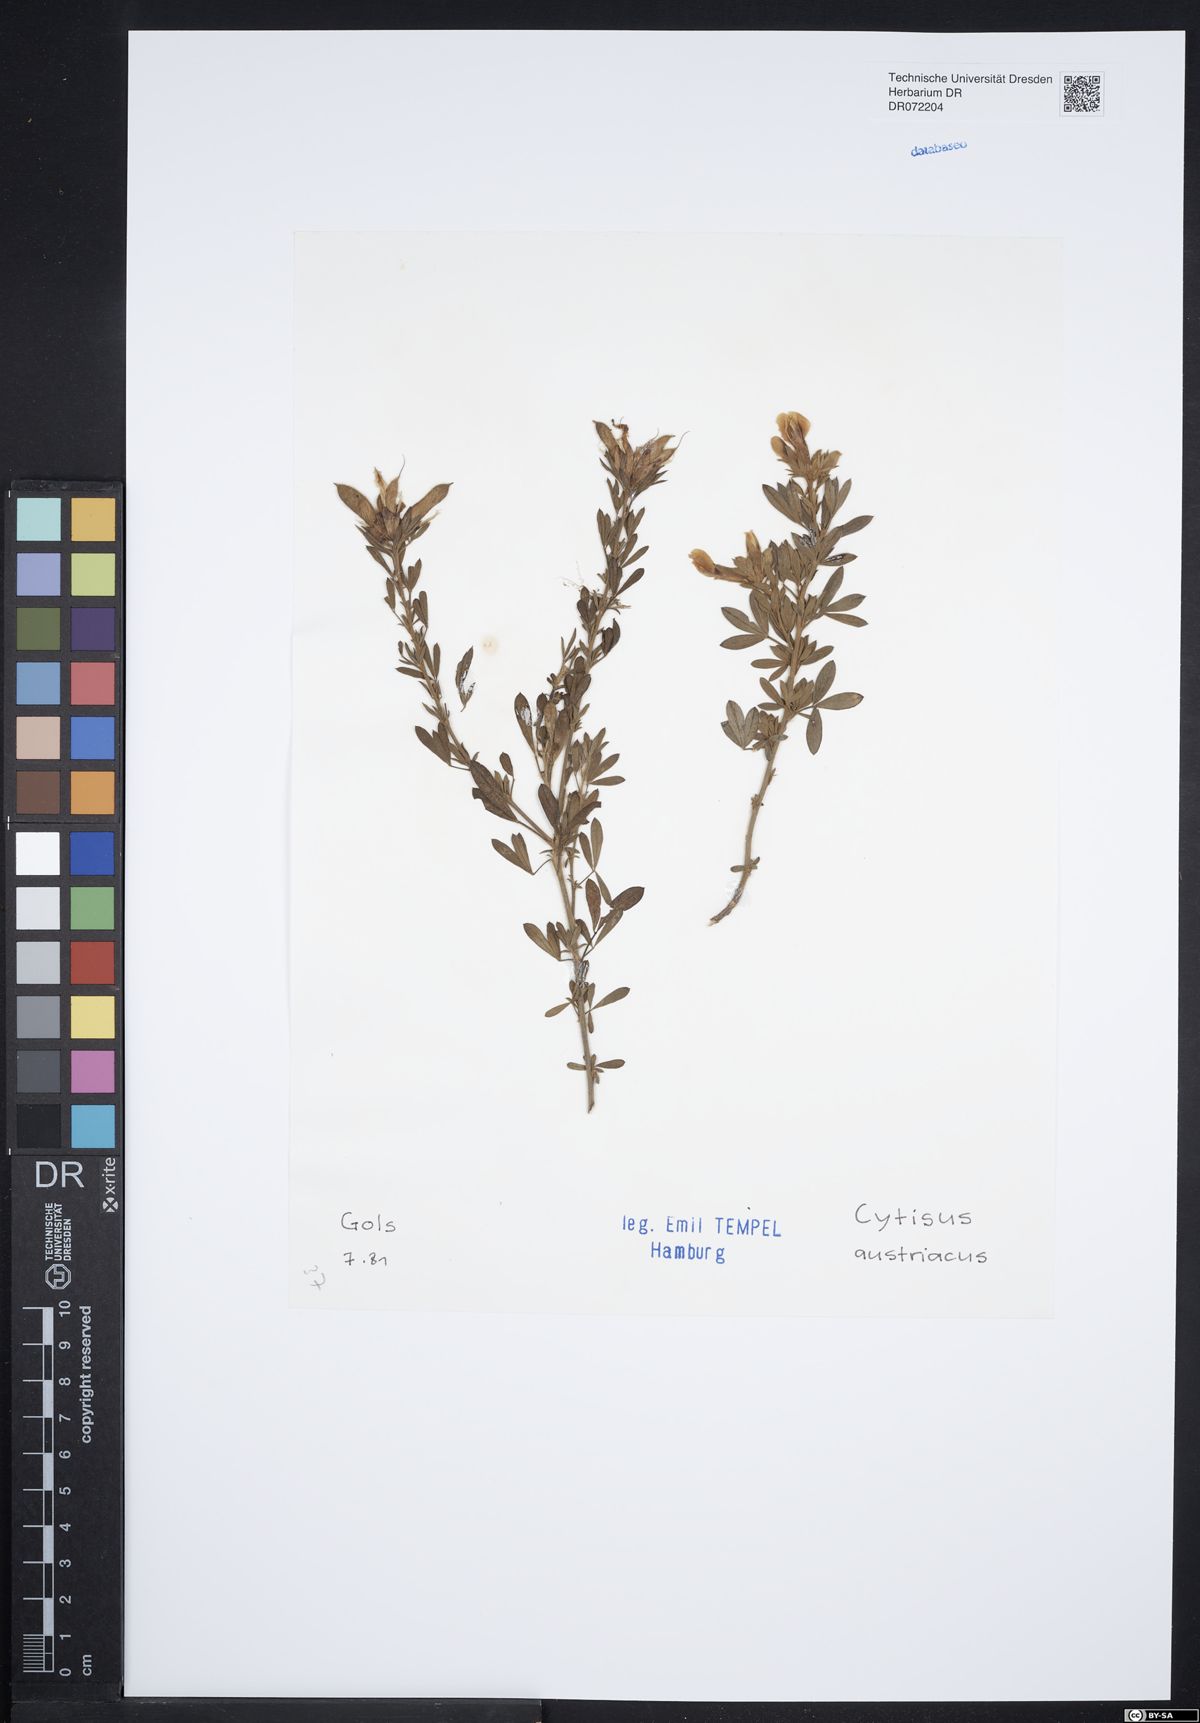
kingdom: Plantae
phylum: Tracheophyta
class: Magnoliopsida
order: Fabales
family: Fabaceae
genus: Chamaecytisus
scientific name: Chamaecytisus austriacus
